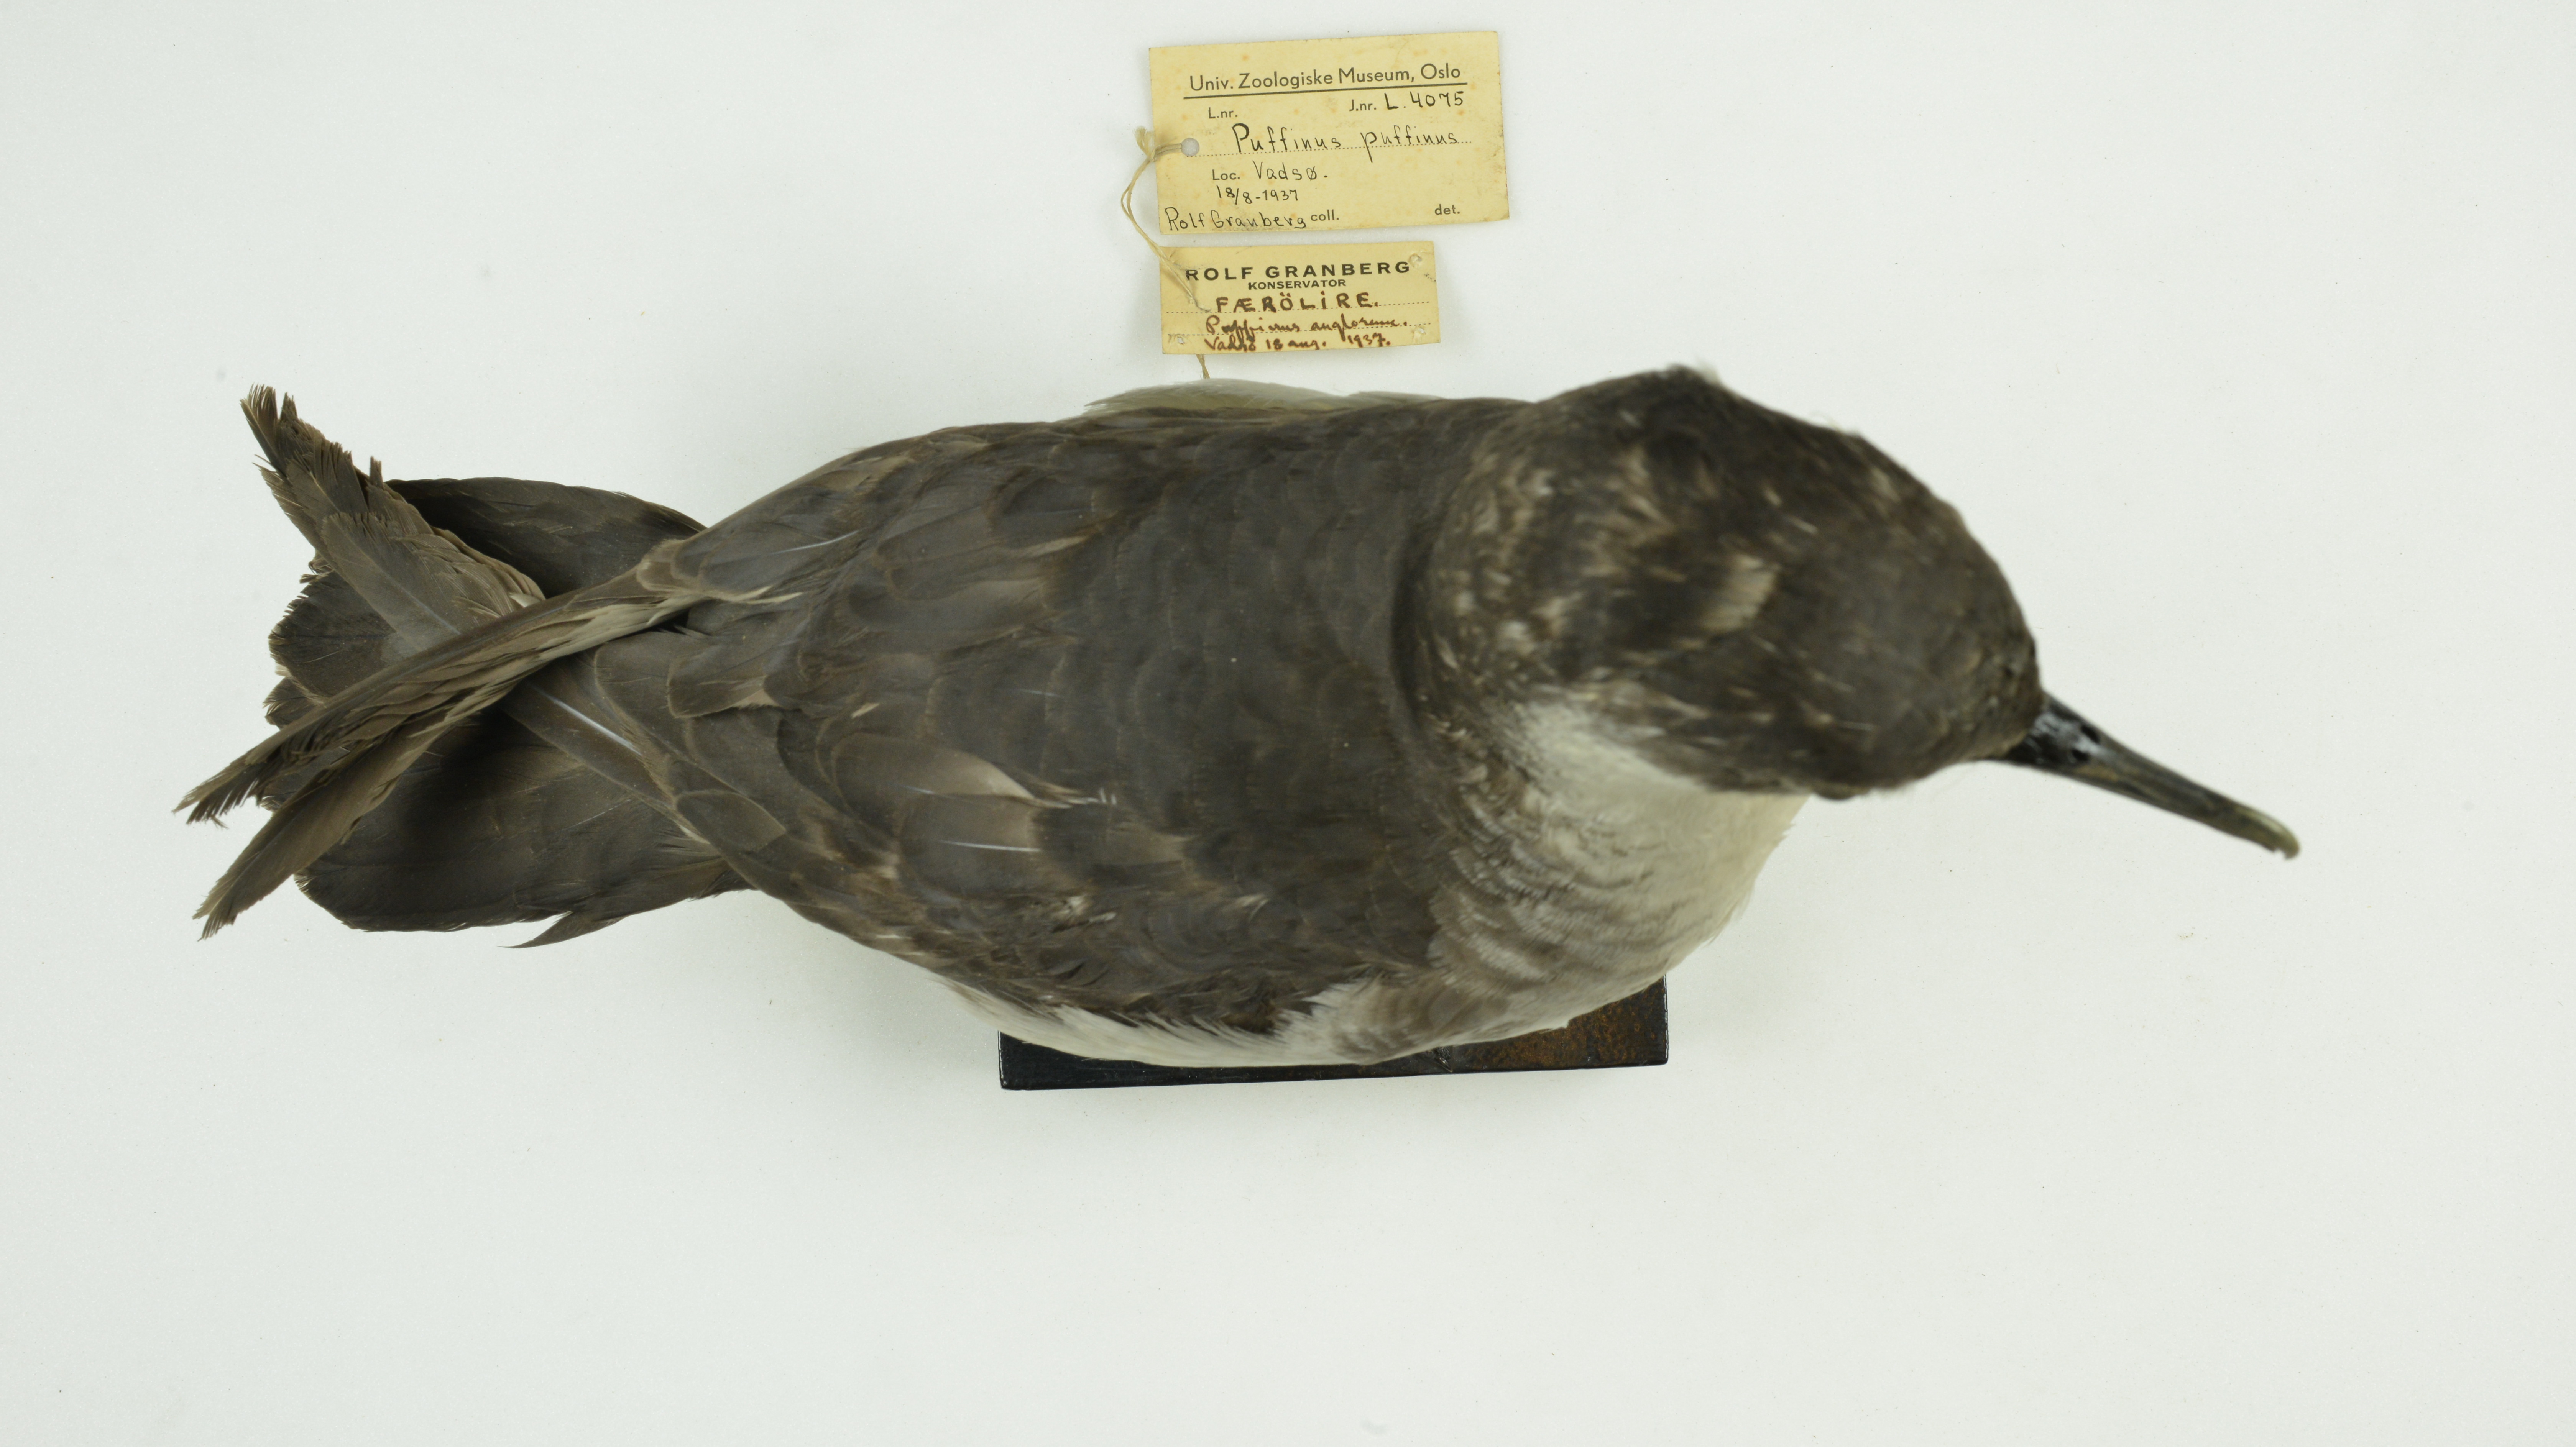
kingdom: Animalia
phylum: Chordata
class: Aves
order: Procellariiformes
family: Procellariidae
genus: Puffinus
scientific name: Puffinus puffinus
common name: Manx shearwater
